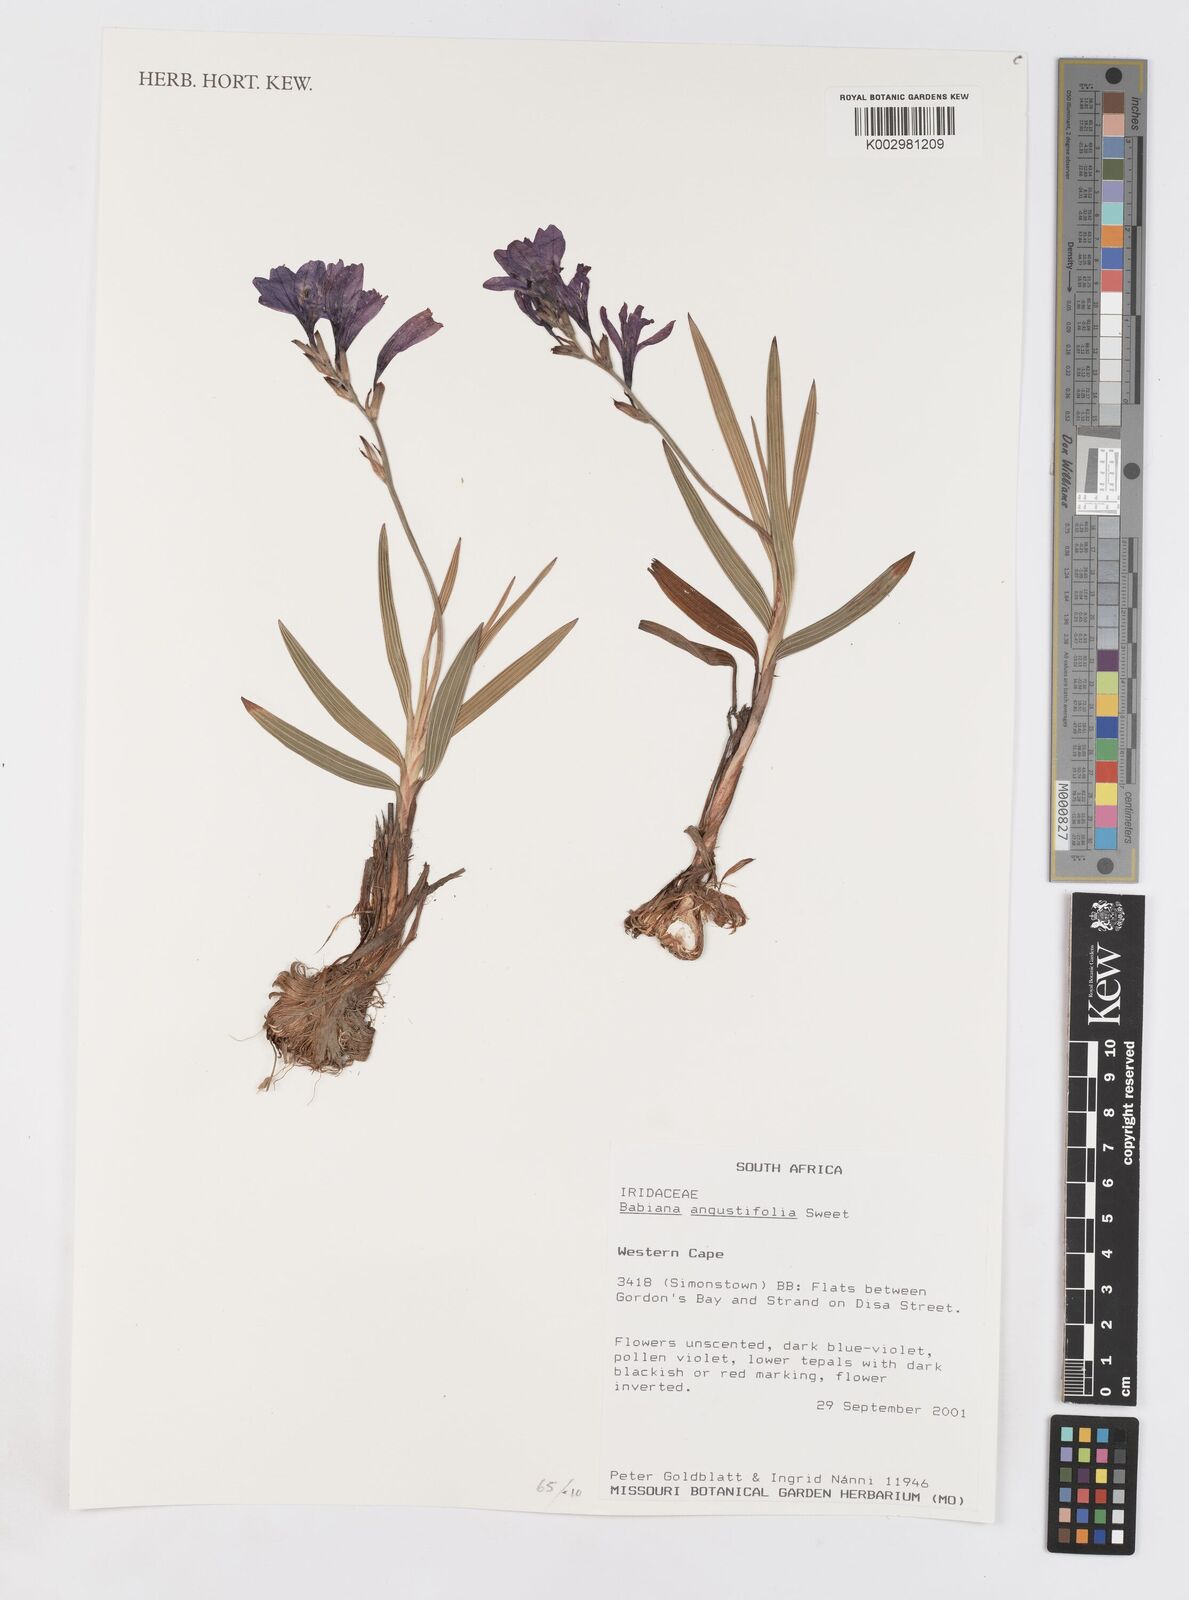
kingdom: Plantae
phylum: Tracheophyta
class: Liliopsida
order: Asparagales
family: Iridaceae
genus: Babiana
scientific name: Babiana angustifolia
